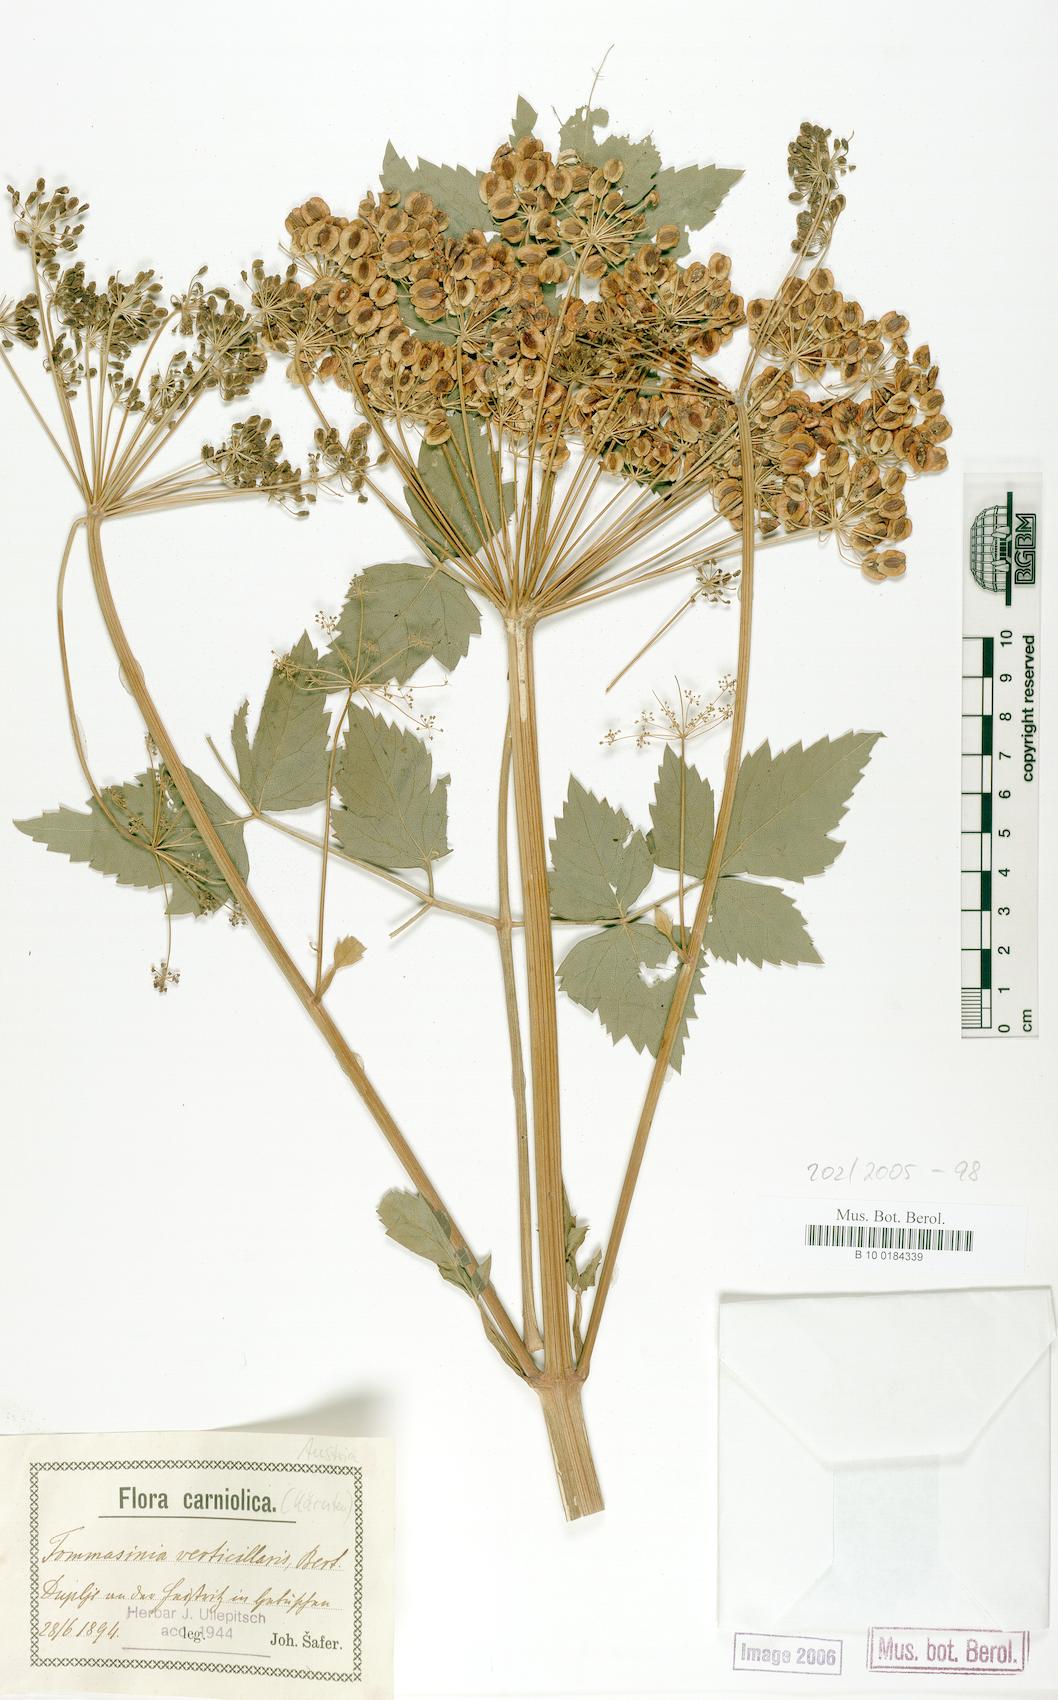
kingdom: Plantae
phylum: Tracheophyta
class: Magnoliopsida
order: Apiales
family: Apiaceae
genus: Tommasinia
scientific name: Tommasinia altissima
